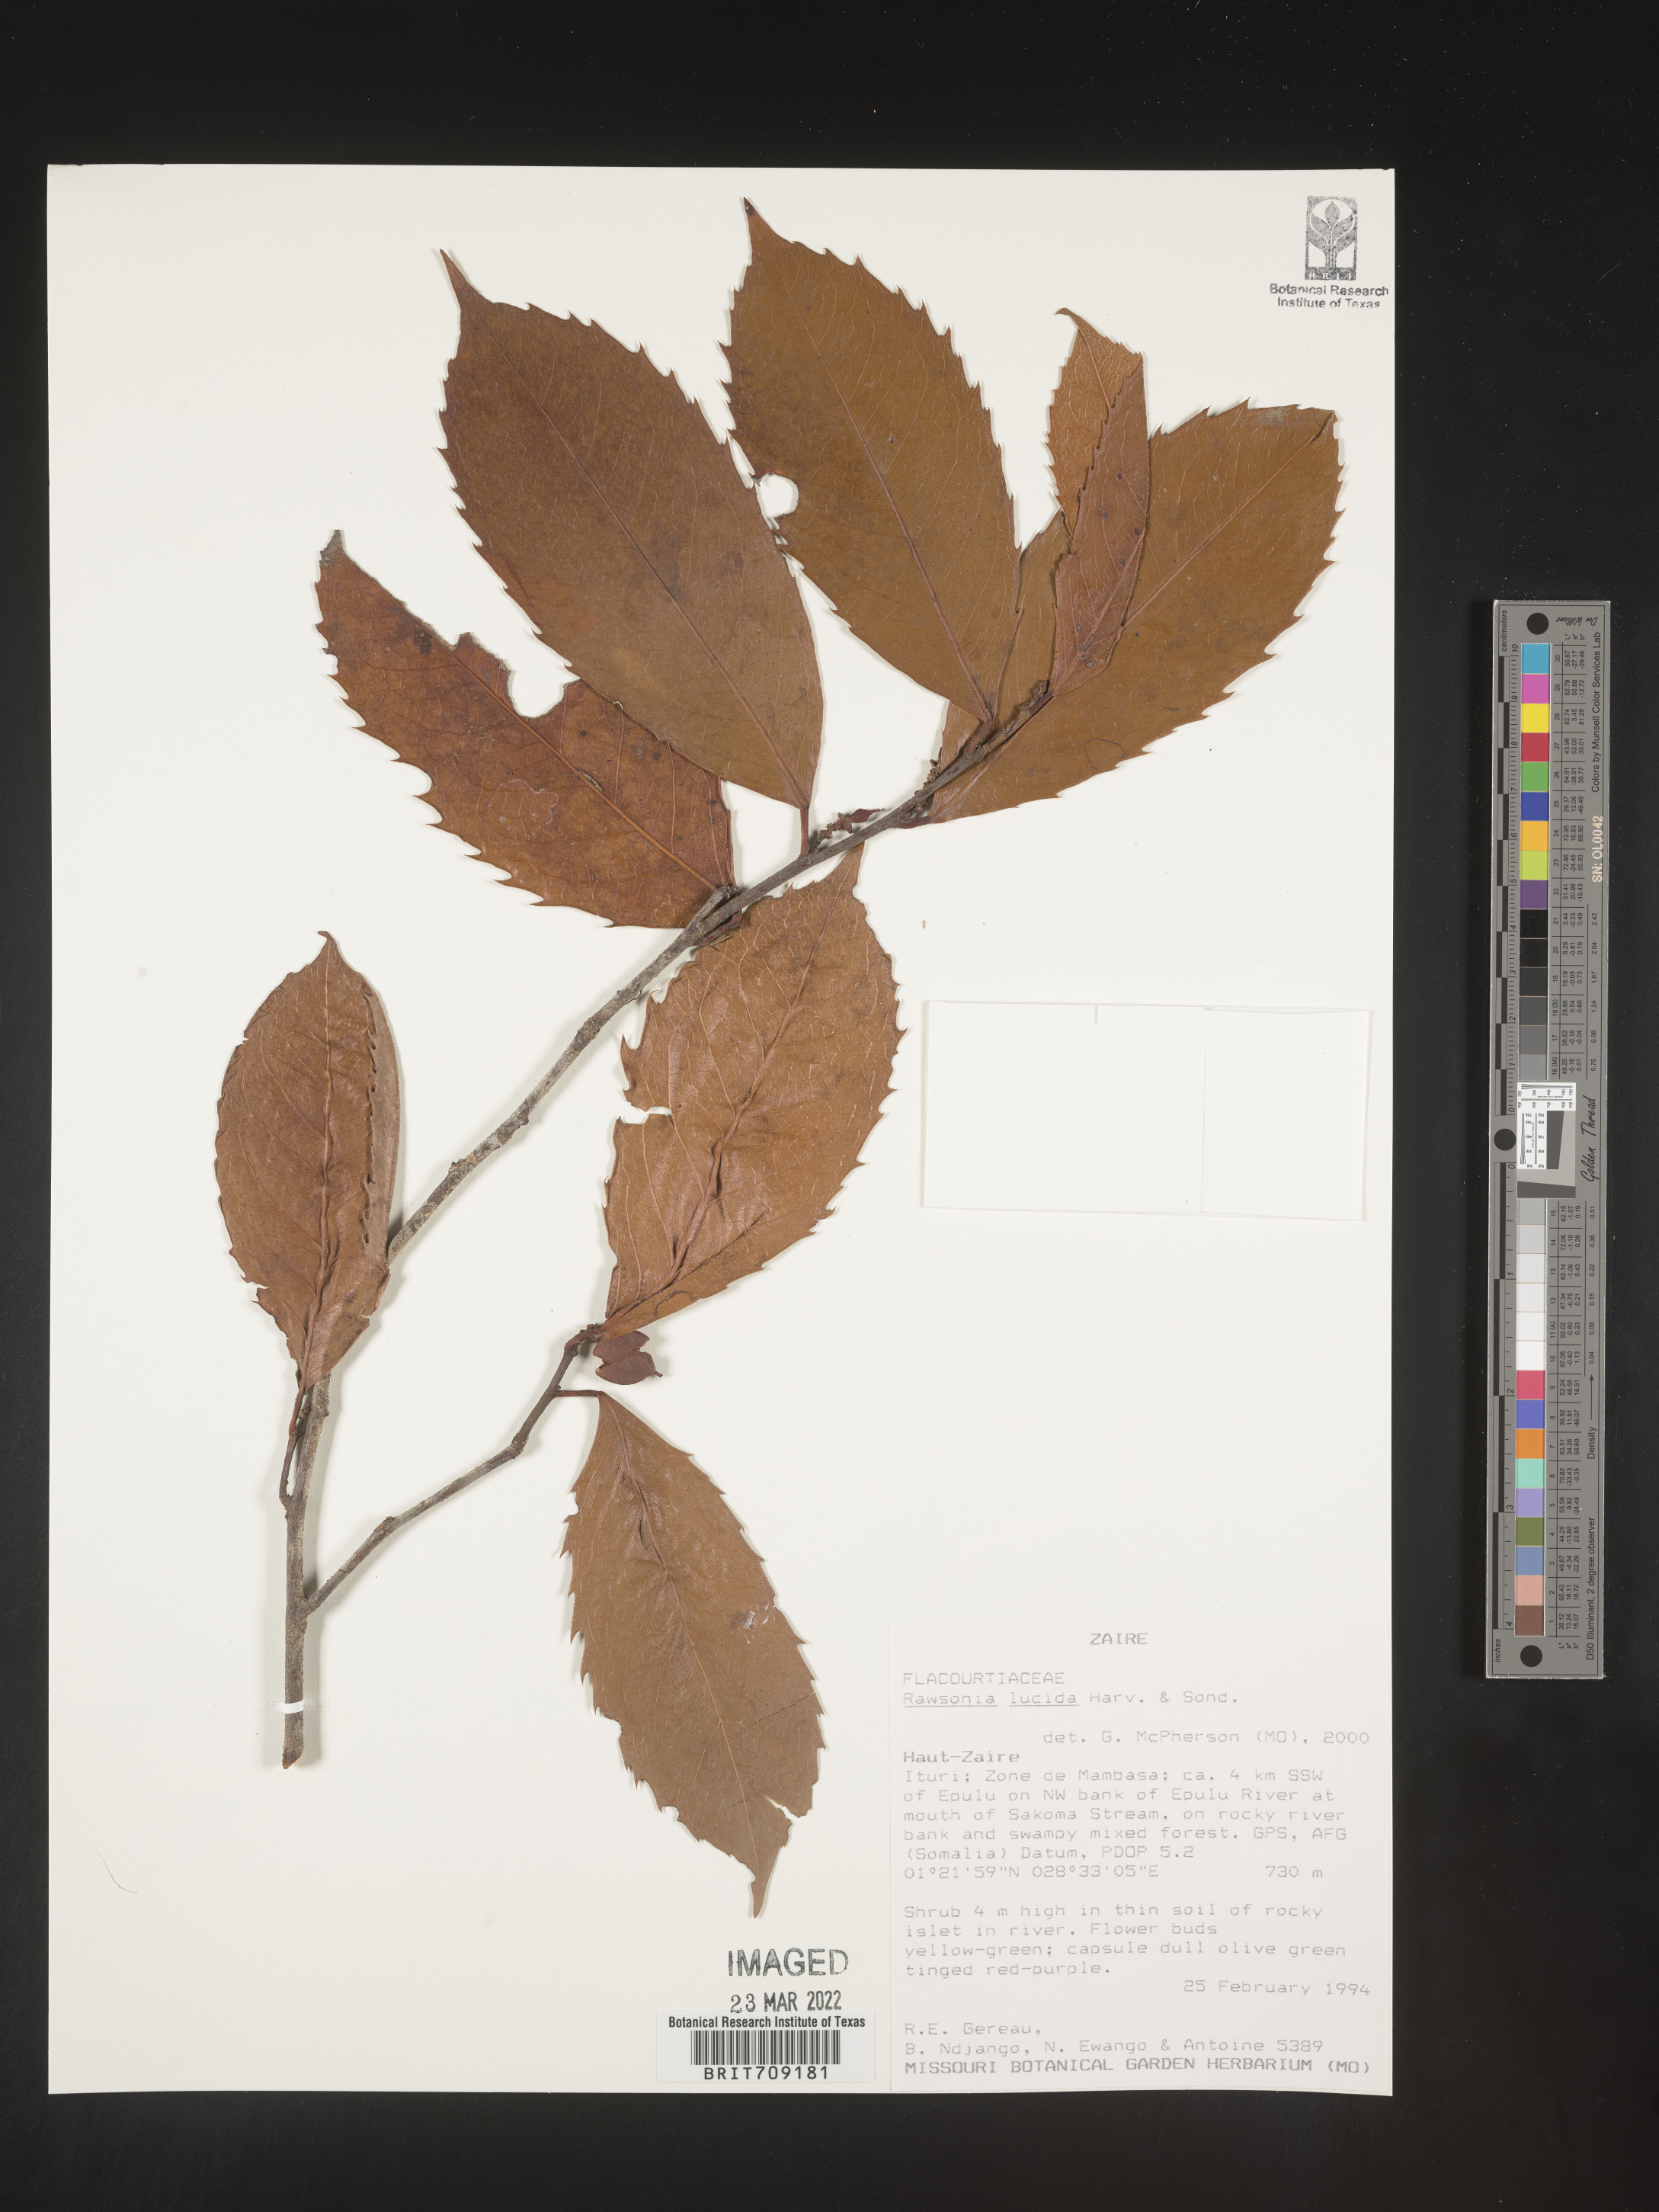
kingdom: Plantae
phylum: Tracheophyta
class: Magnoliopsida
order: Malpighiales
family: Achariaceae
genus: Rawsonia
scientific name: Rawsonia
